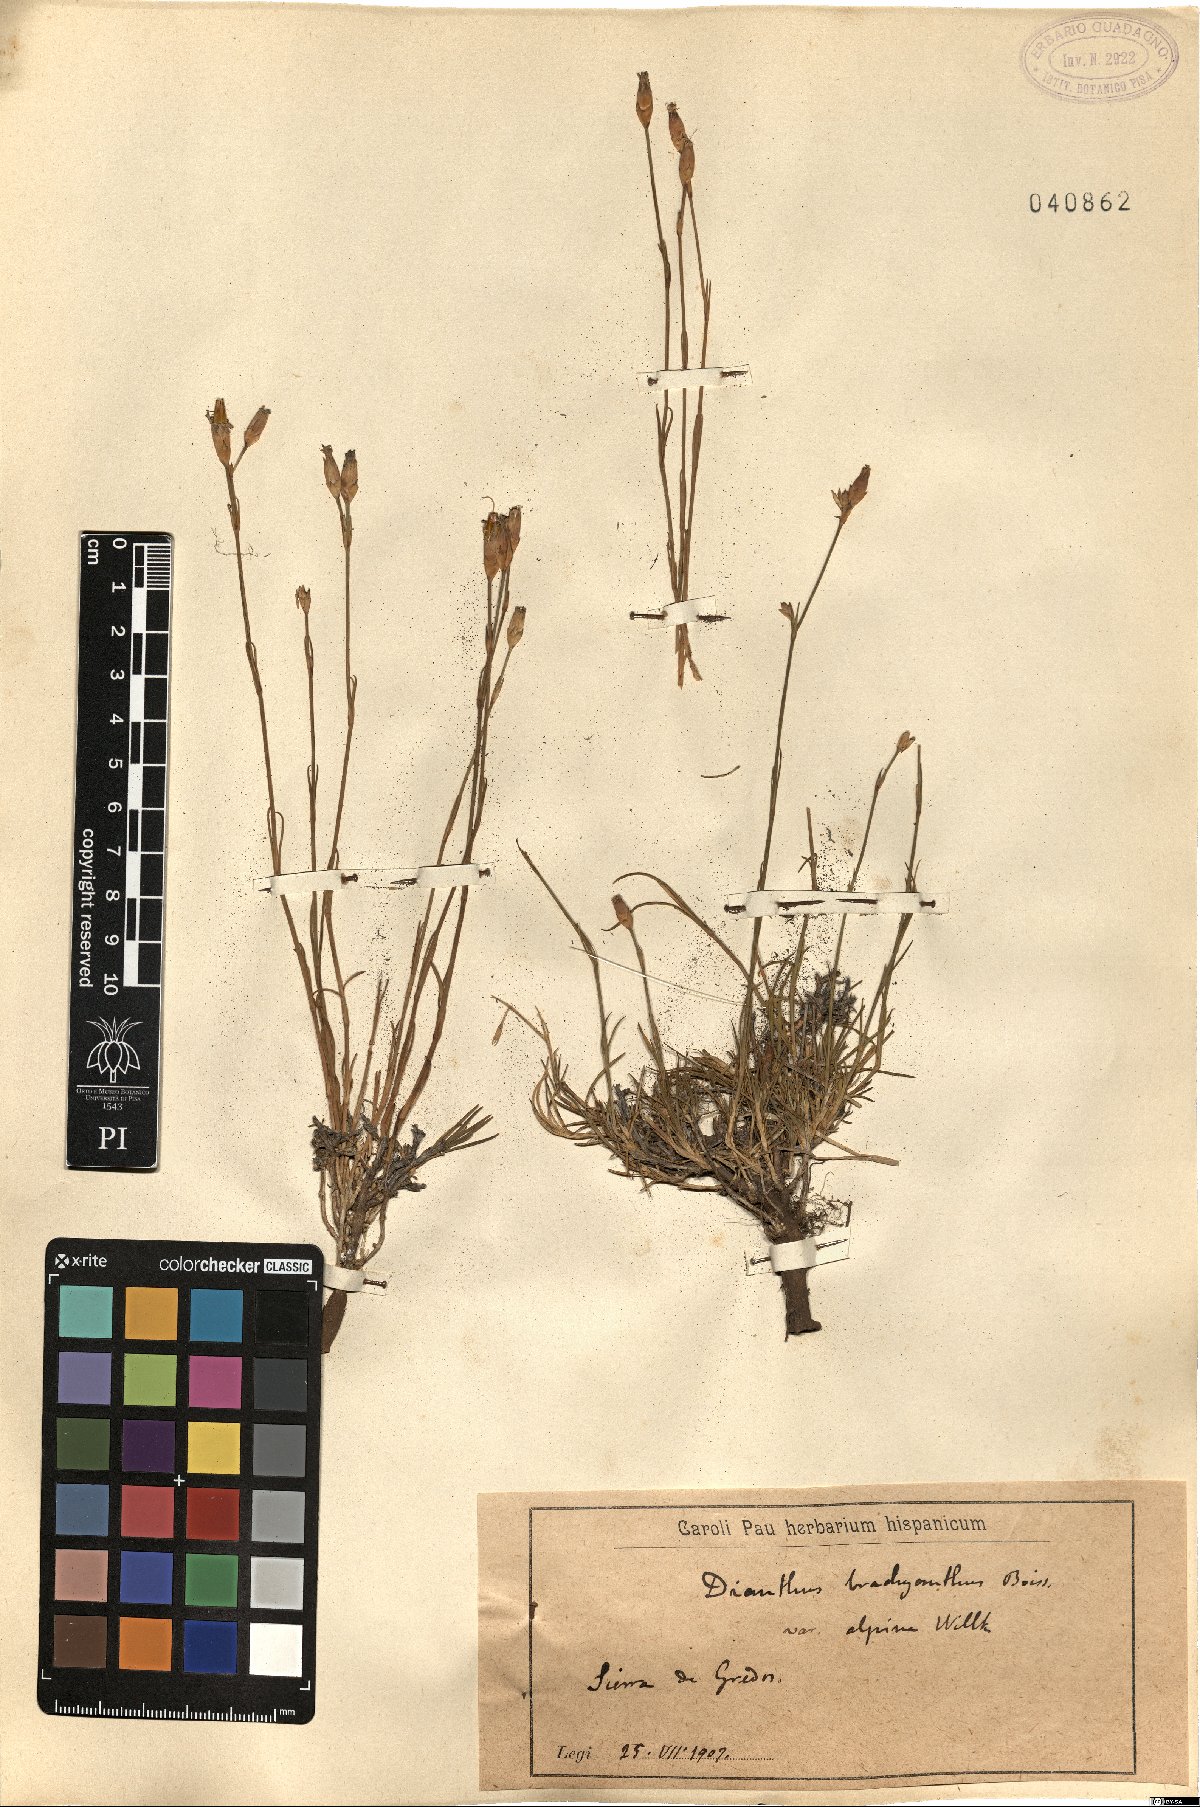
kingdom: Plantae
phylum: Tracheophyta
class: Magnoliopsida
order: Caryophyllales
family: Caryophyllaceae
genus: Dianthus
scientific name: Dianthus pungens
